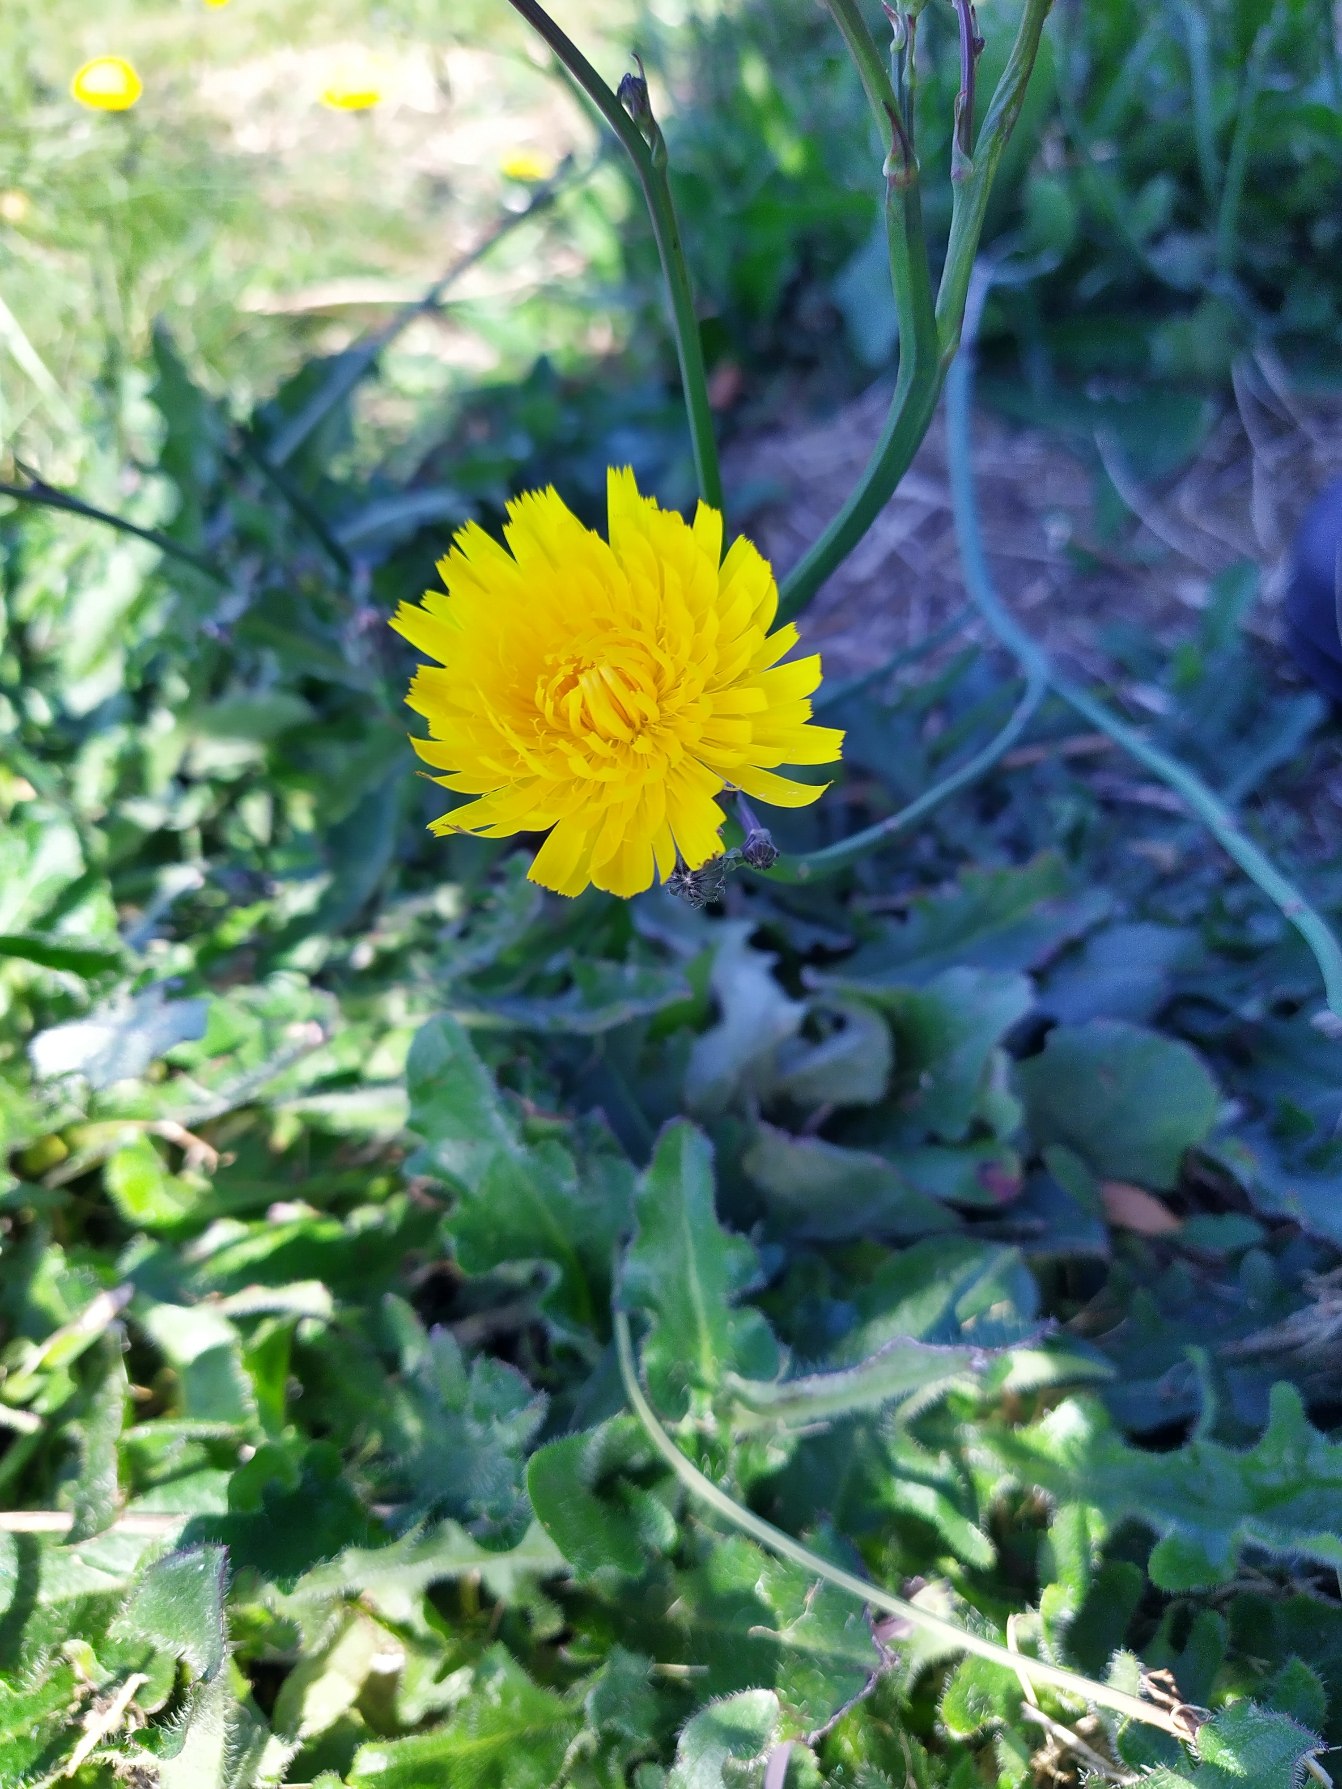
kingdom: Plantae
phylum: Tracheophyta
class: Magnoliopsida
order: Asterales
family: Asteraceae
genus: Hypochaeris
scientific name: Hypochaeris radicata
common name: Almindelig kongepen
